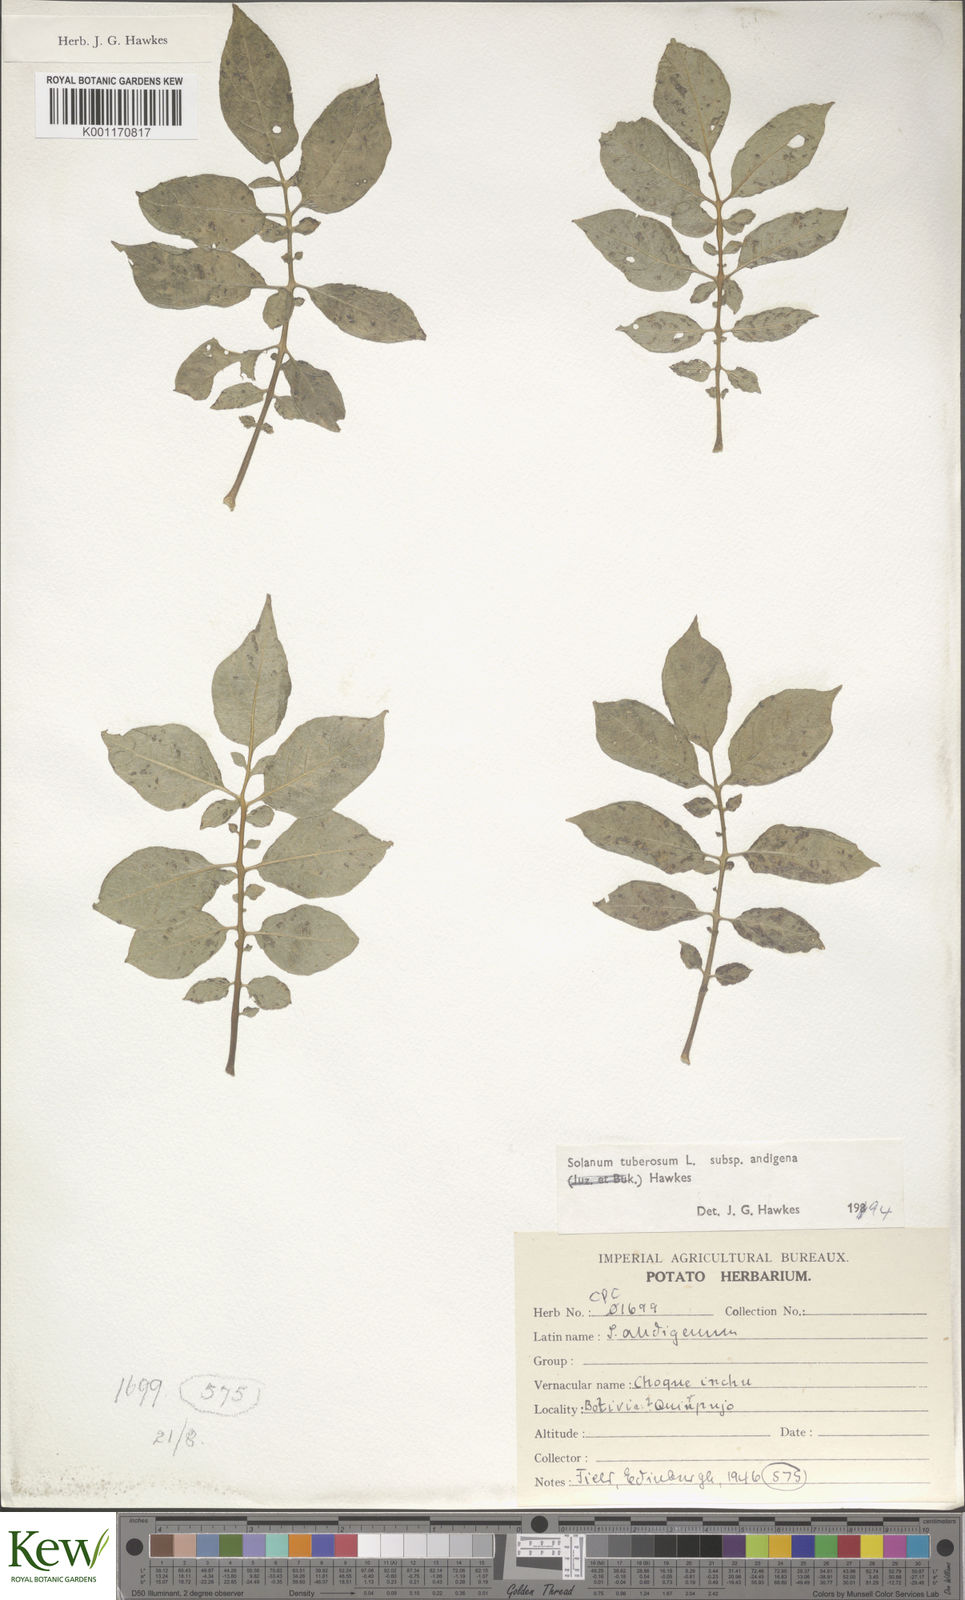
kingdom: Plantae
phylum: Tracheophyta
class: Magnoliopsida
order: Solanales
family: Solanaceae
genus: Solanum
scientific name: Solanum tuberosum
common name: Potato
